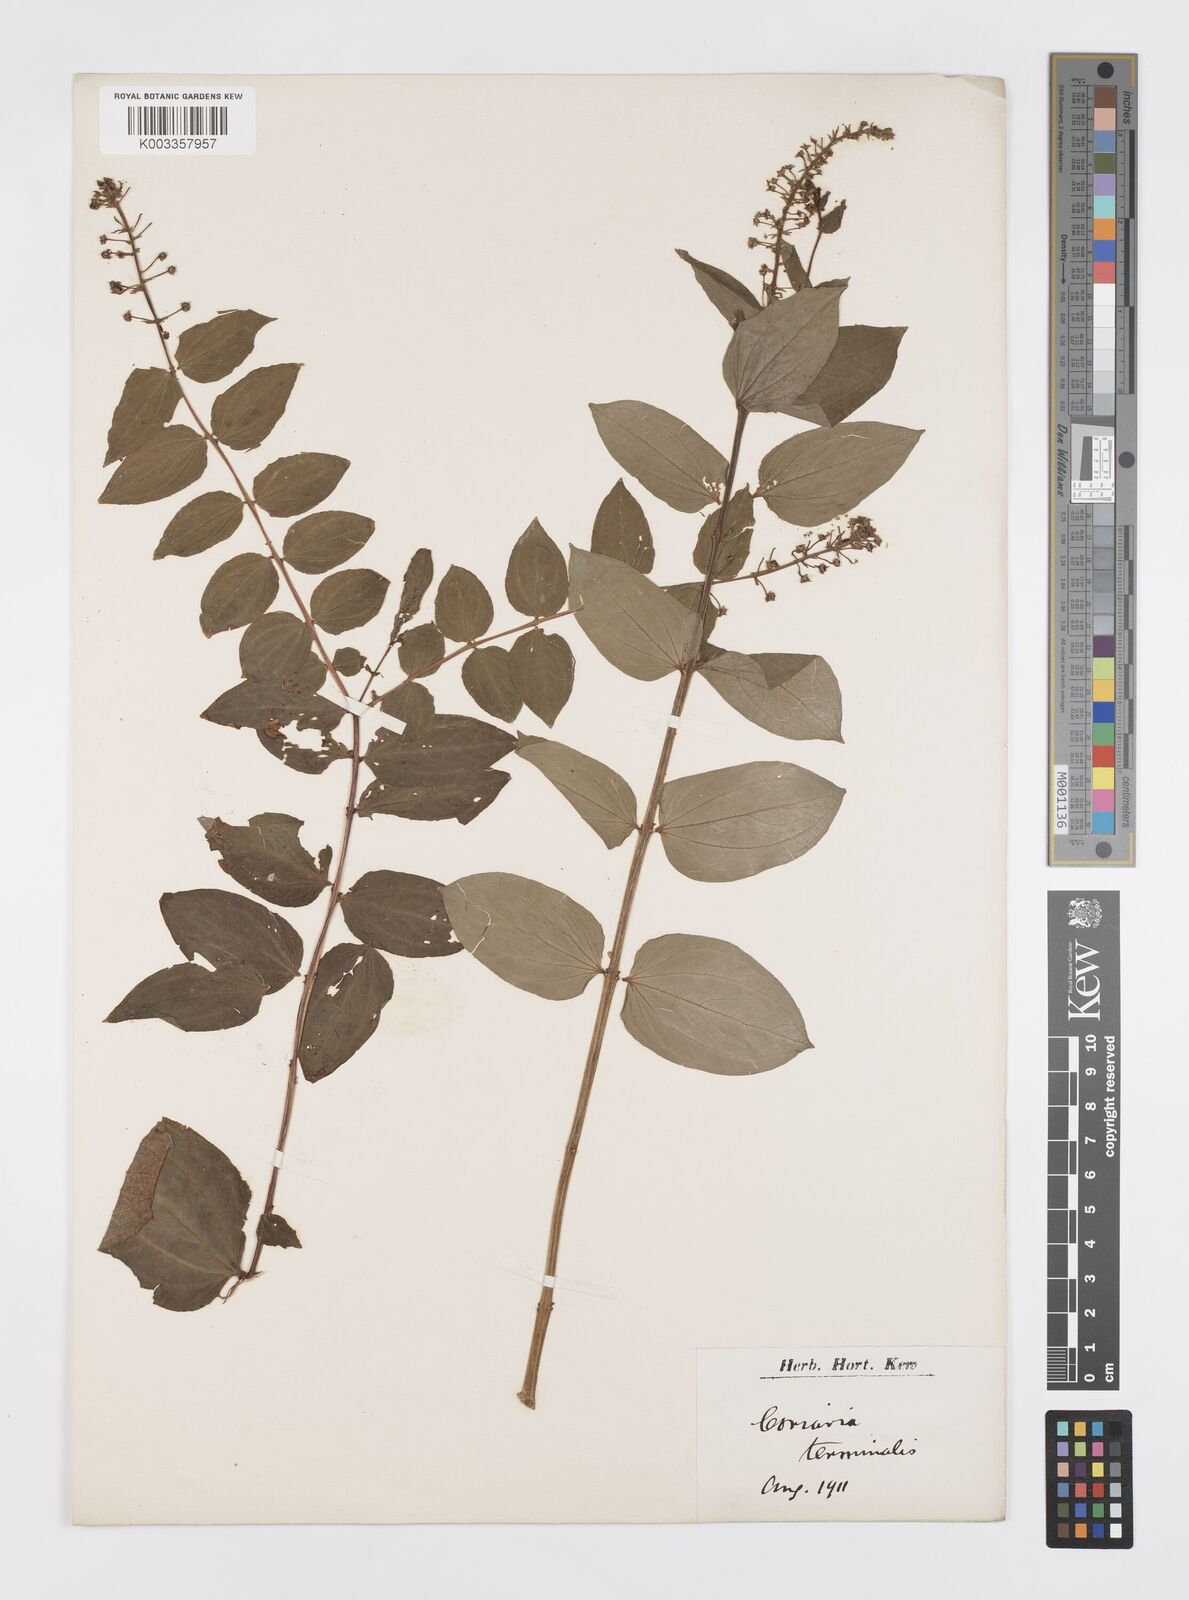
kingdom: Plantae
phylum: Tracheophyta
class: Magnoliopsida
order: Cucurbitales
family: Coriariaceae
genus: Coriaria
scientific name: Coriaria terminalis
